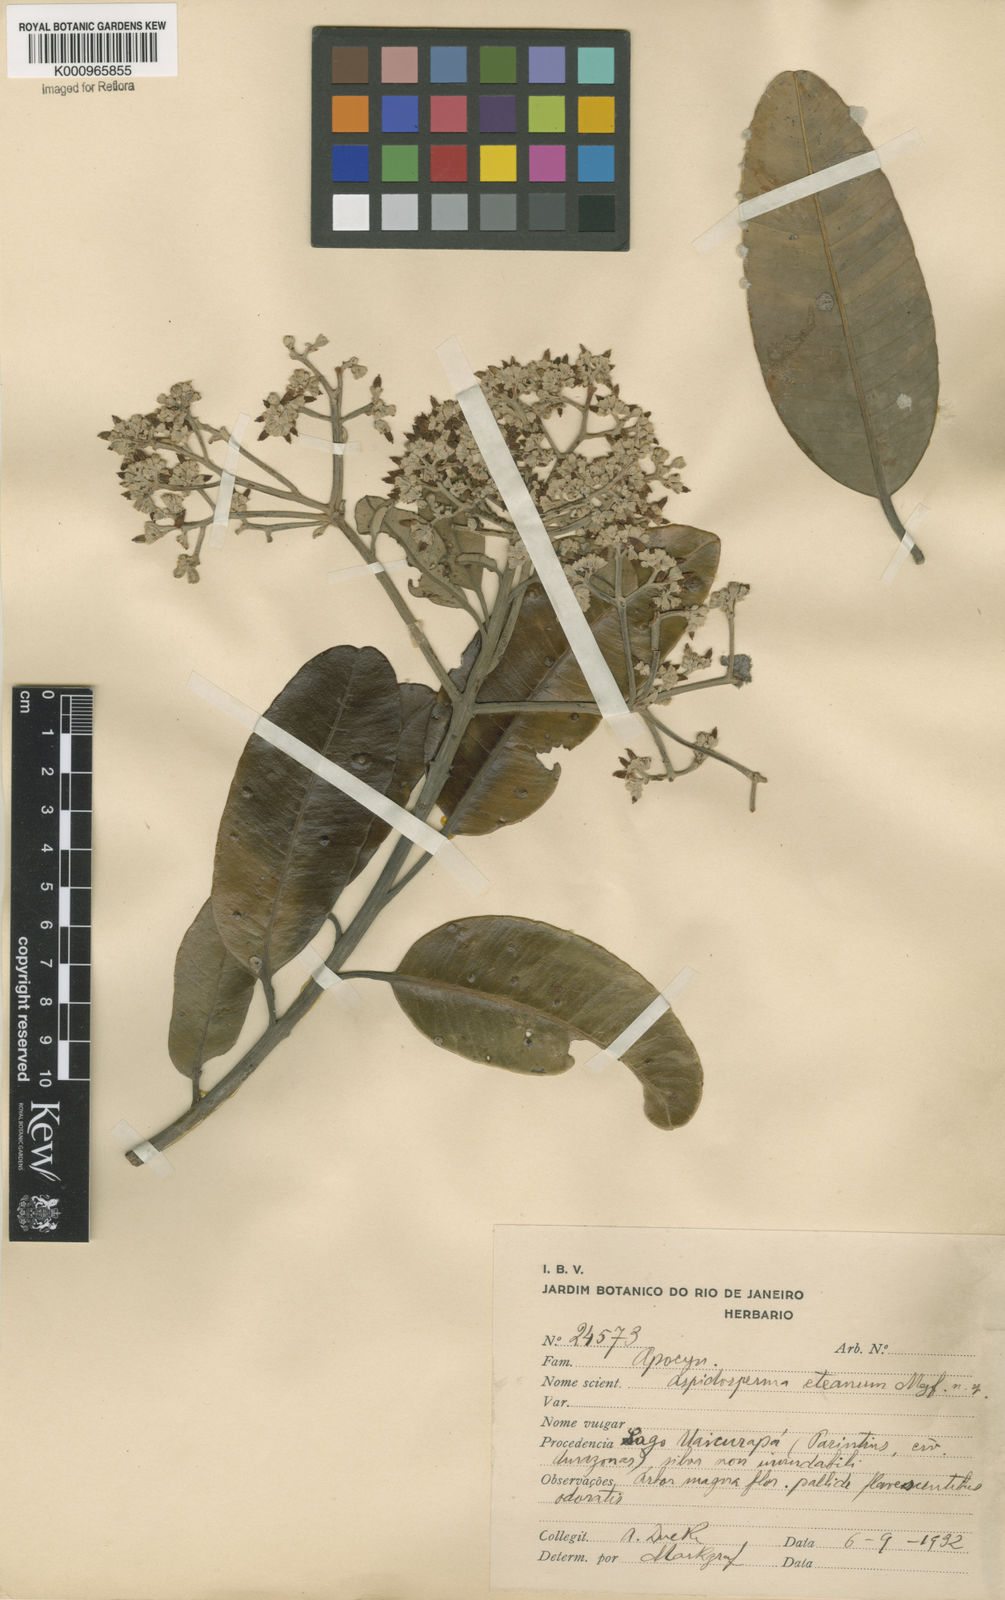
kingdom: Plantae
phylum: Tracheophyta
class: Magnoliopsida
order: Gentianales
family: Apocynaceae
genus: Aspidosperma
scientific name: Aspidosperma eteanum
